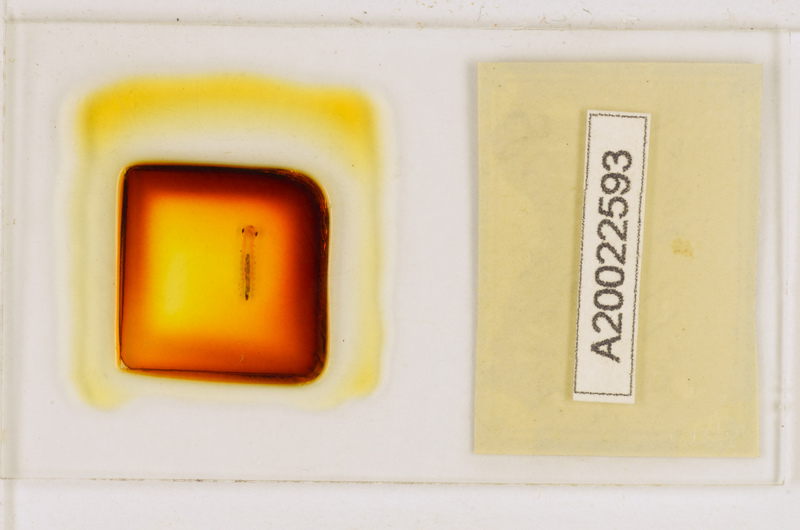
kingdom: Animalia
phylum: Arthropoda
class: Chilopoda
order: Scutigeromorpha
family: Scutigeridae
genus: Scutigera
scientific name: Scutigera coleoptrata
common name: House centipede
